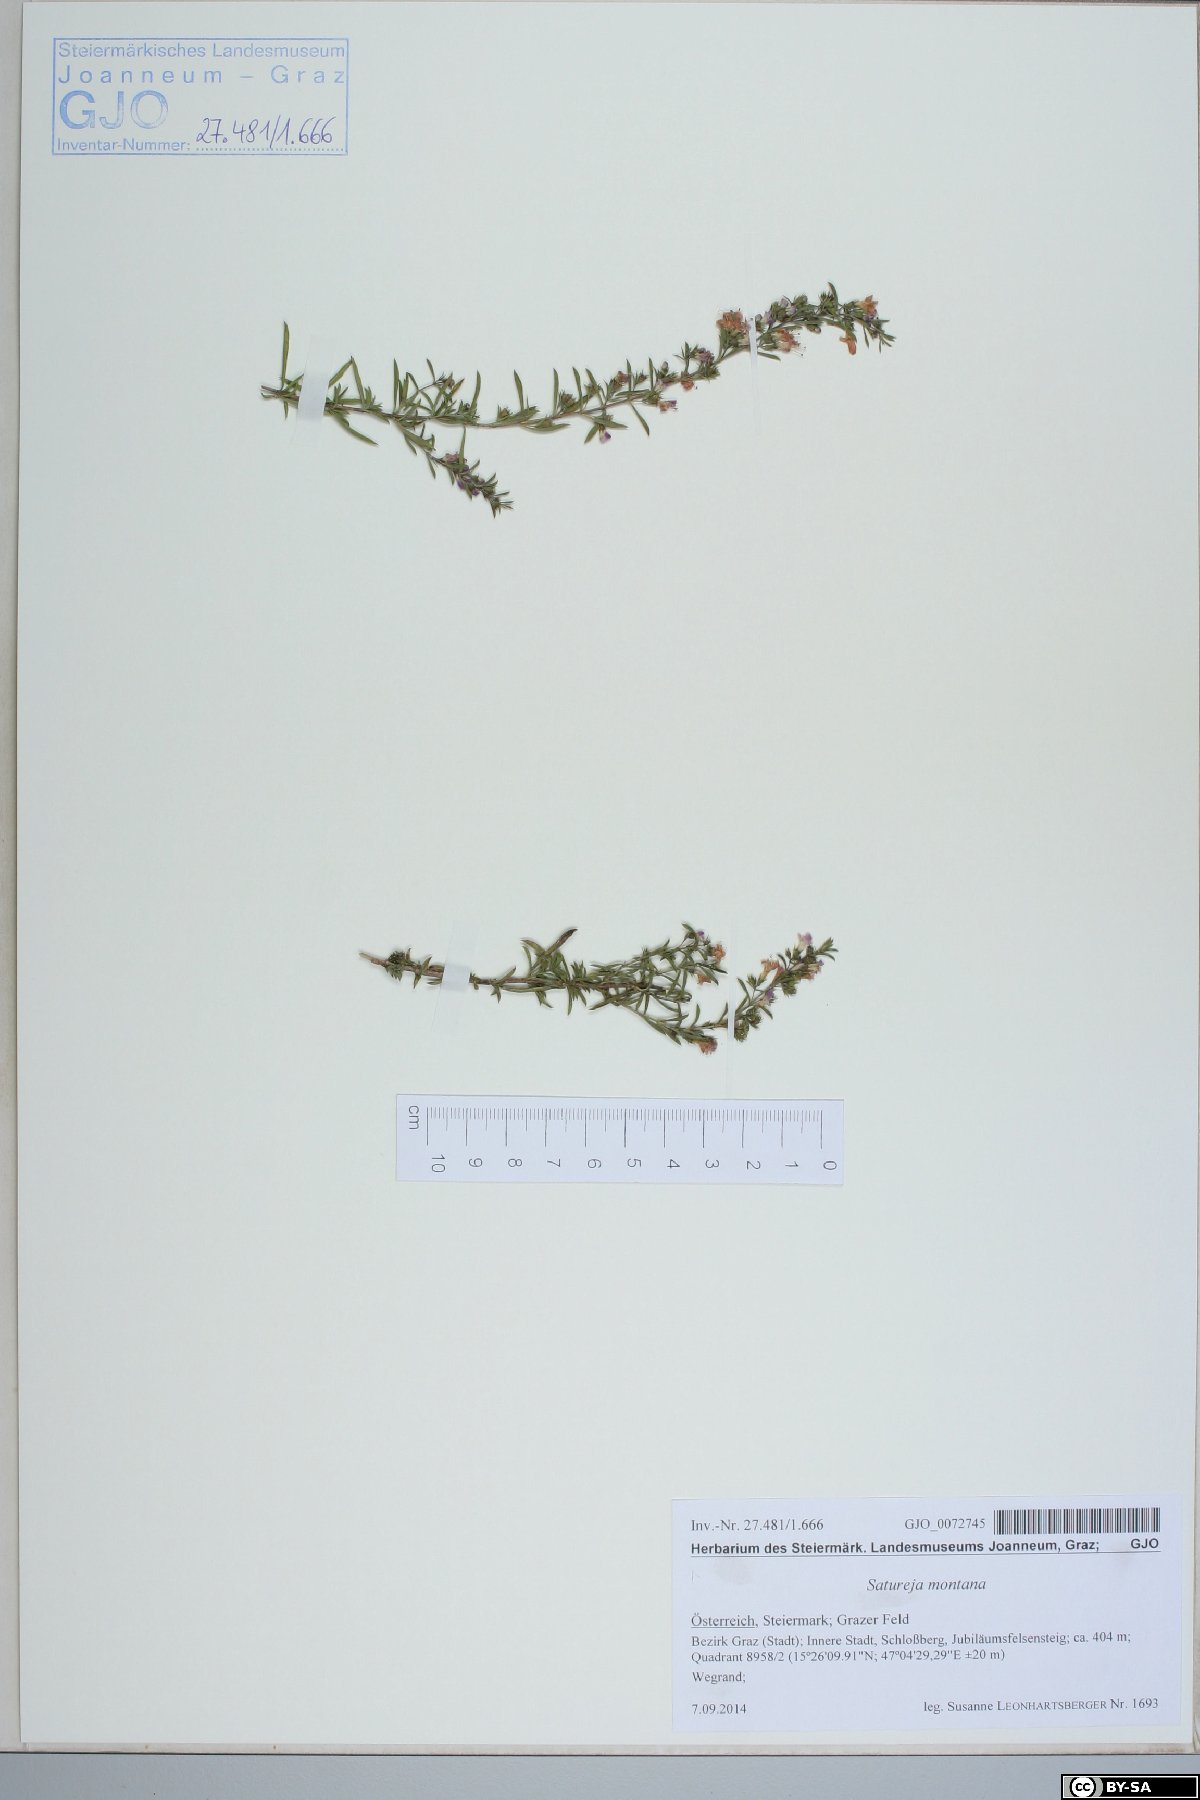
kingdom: Plantae
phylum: Tracheophyta
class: Magnoliopsida
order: Lamiales
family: Lamiaceae
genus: Satureja
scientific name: Satureja montana
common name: Winter savory
